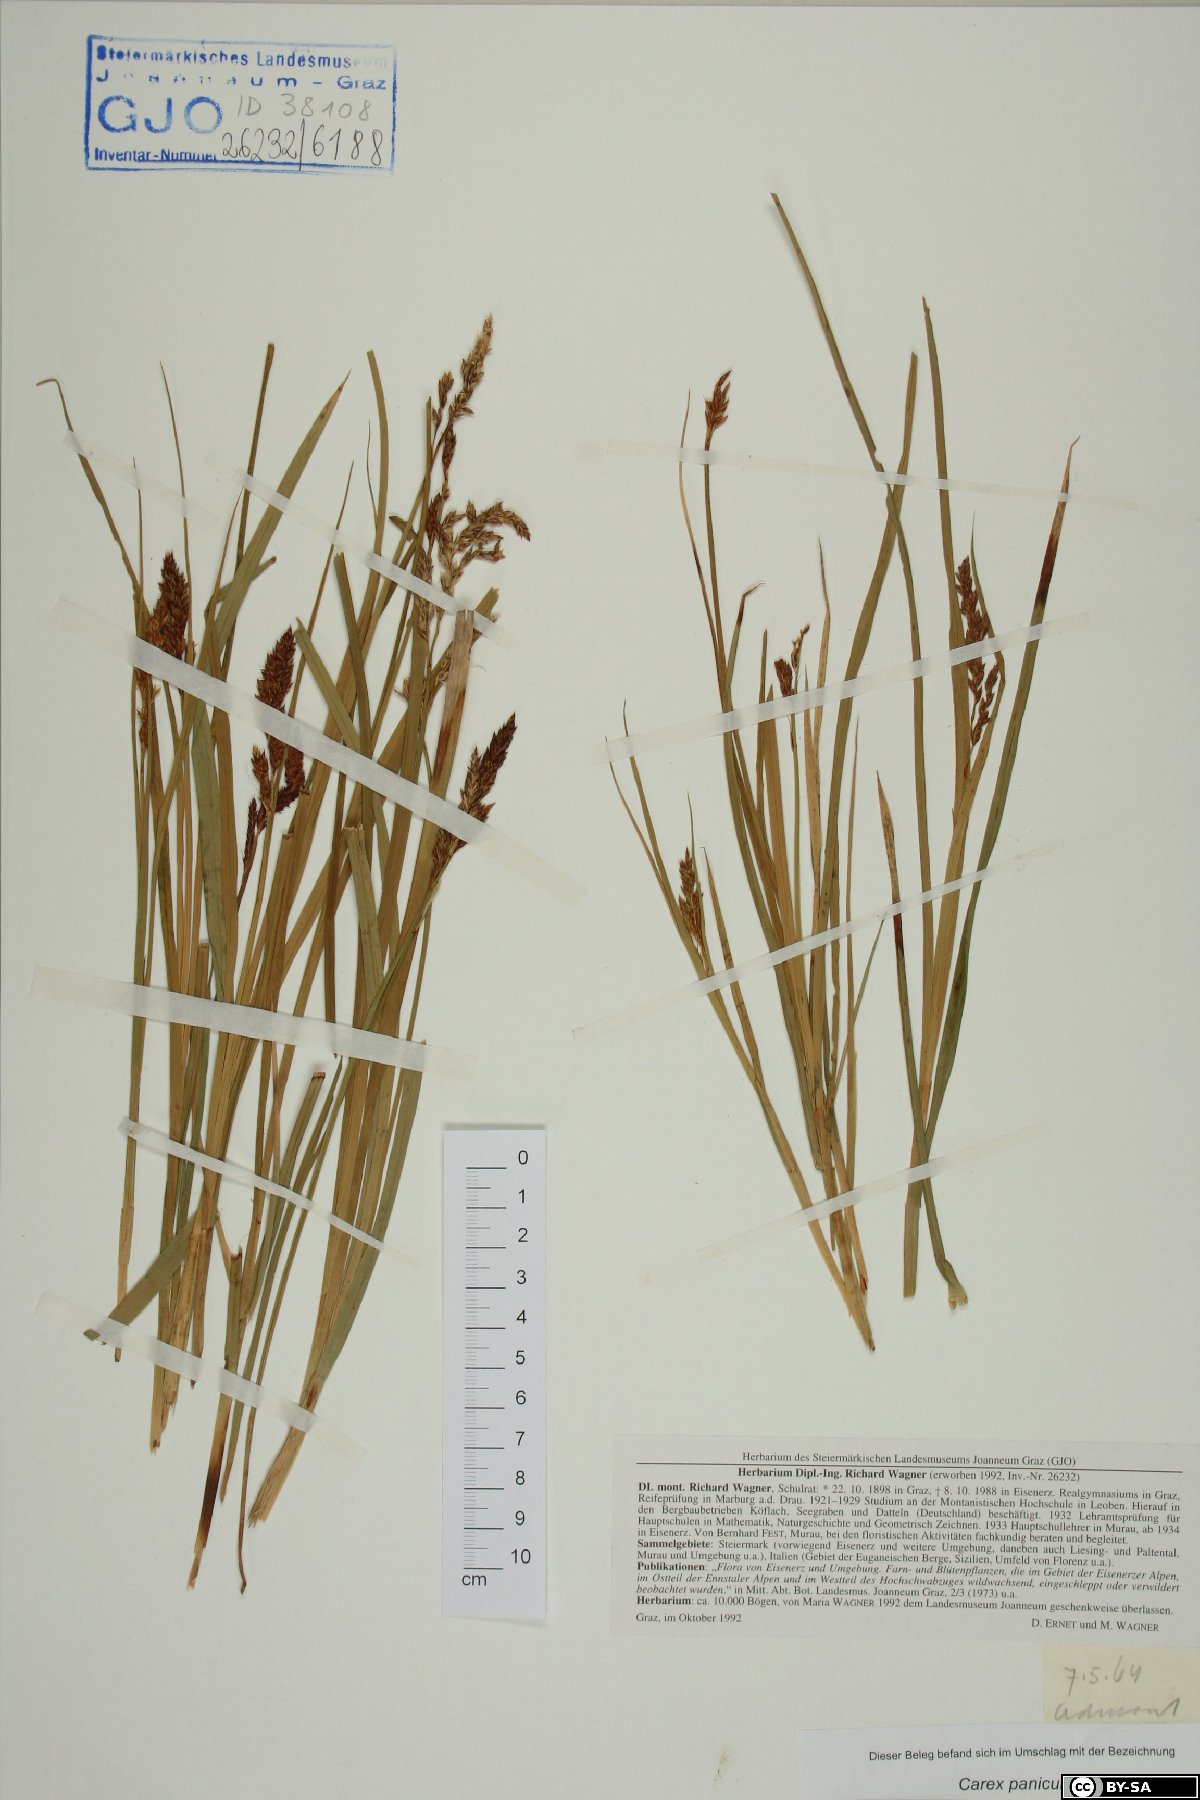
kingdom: Plantae
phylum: Tracheophyta
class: Liliopsida
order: Poales
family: Cyperaceae
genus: Carex
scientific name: Carex paniculata
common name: Greater tussock-sedge
